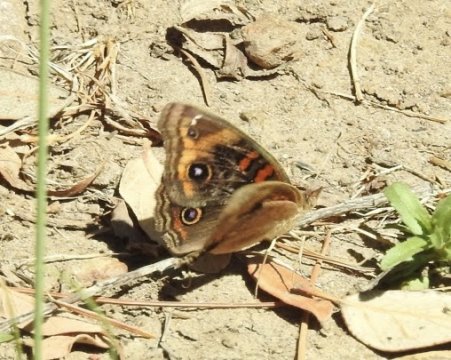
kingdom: Animalia
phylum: Arthropoda
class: Insecta
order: Lepidoptera
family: Nymphalidae
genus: Junonia
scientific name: Junonia lavinia
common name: Tropical Buckeye
